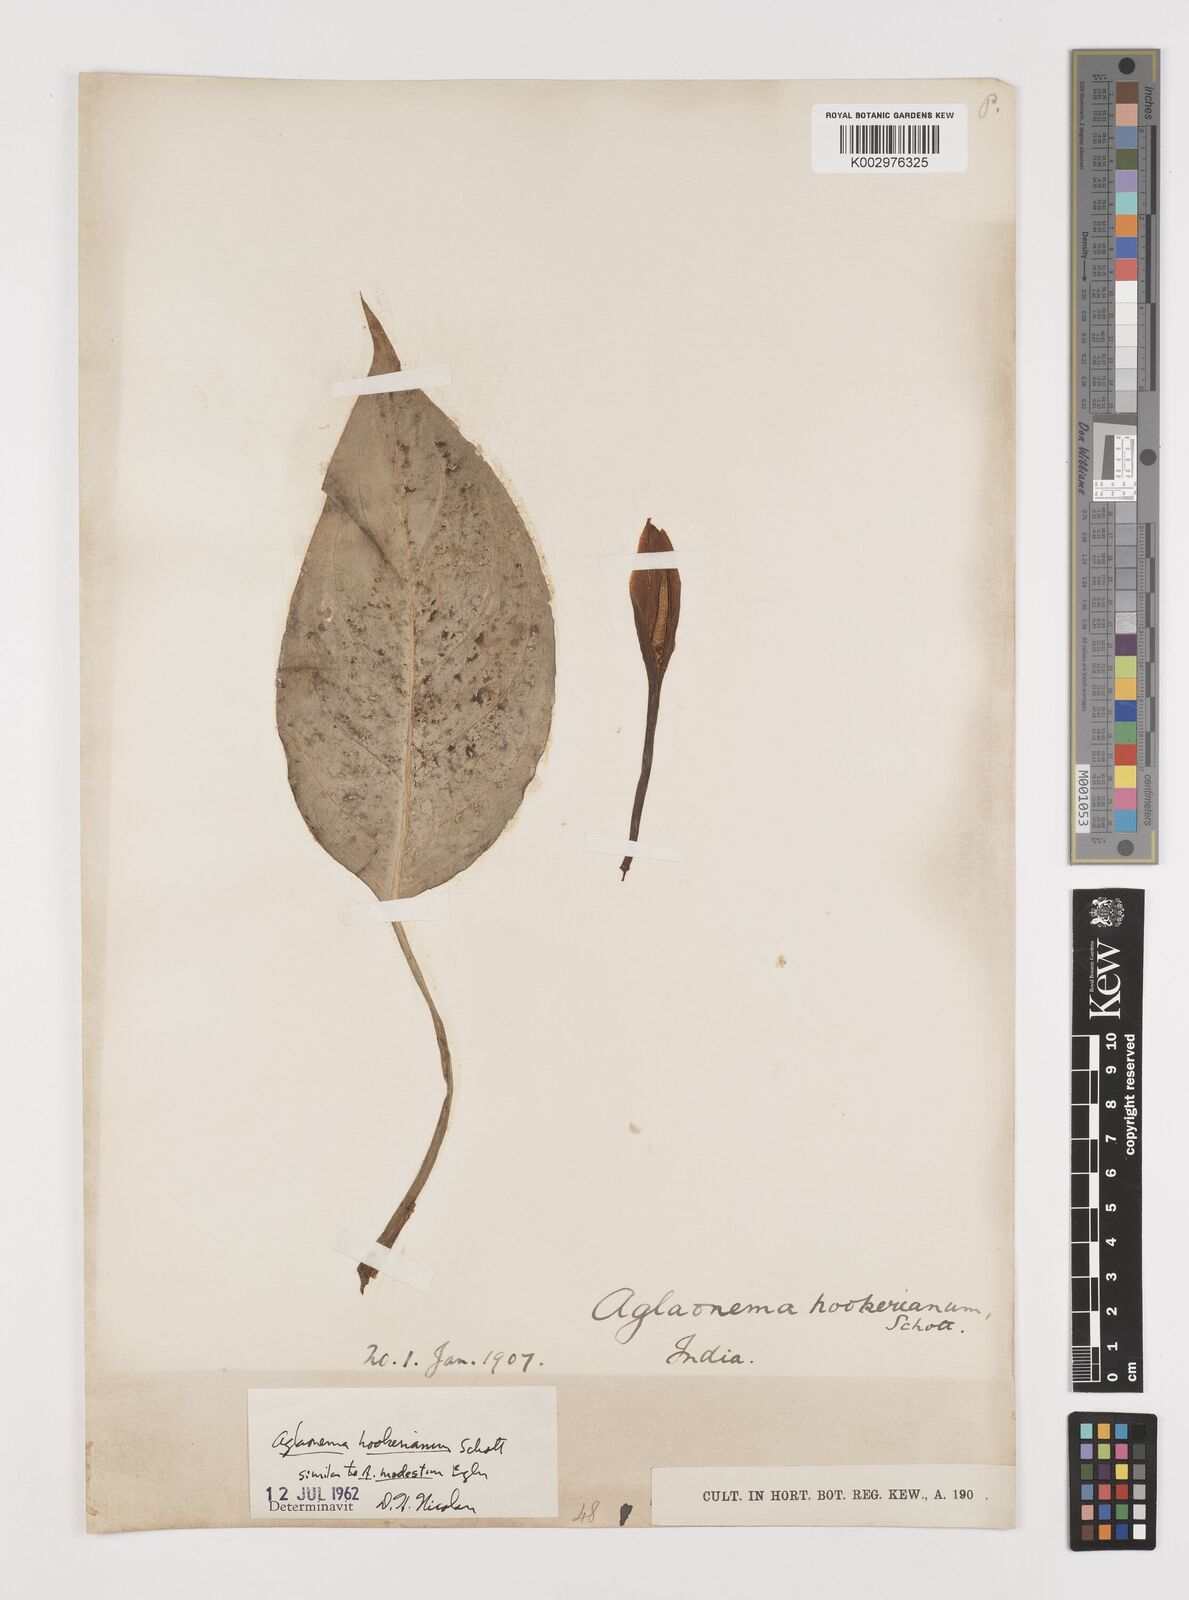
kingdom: Plantae
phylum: Tracheophyta
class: Liliopsida
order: Alismatales
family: Araceae
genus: Aglaonema
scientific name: Aglaonema hookerianum
